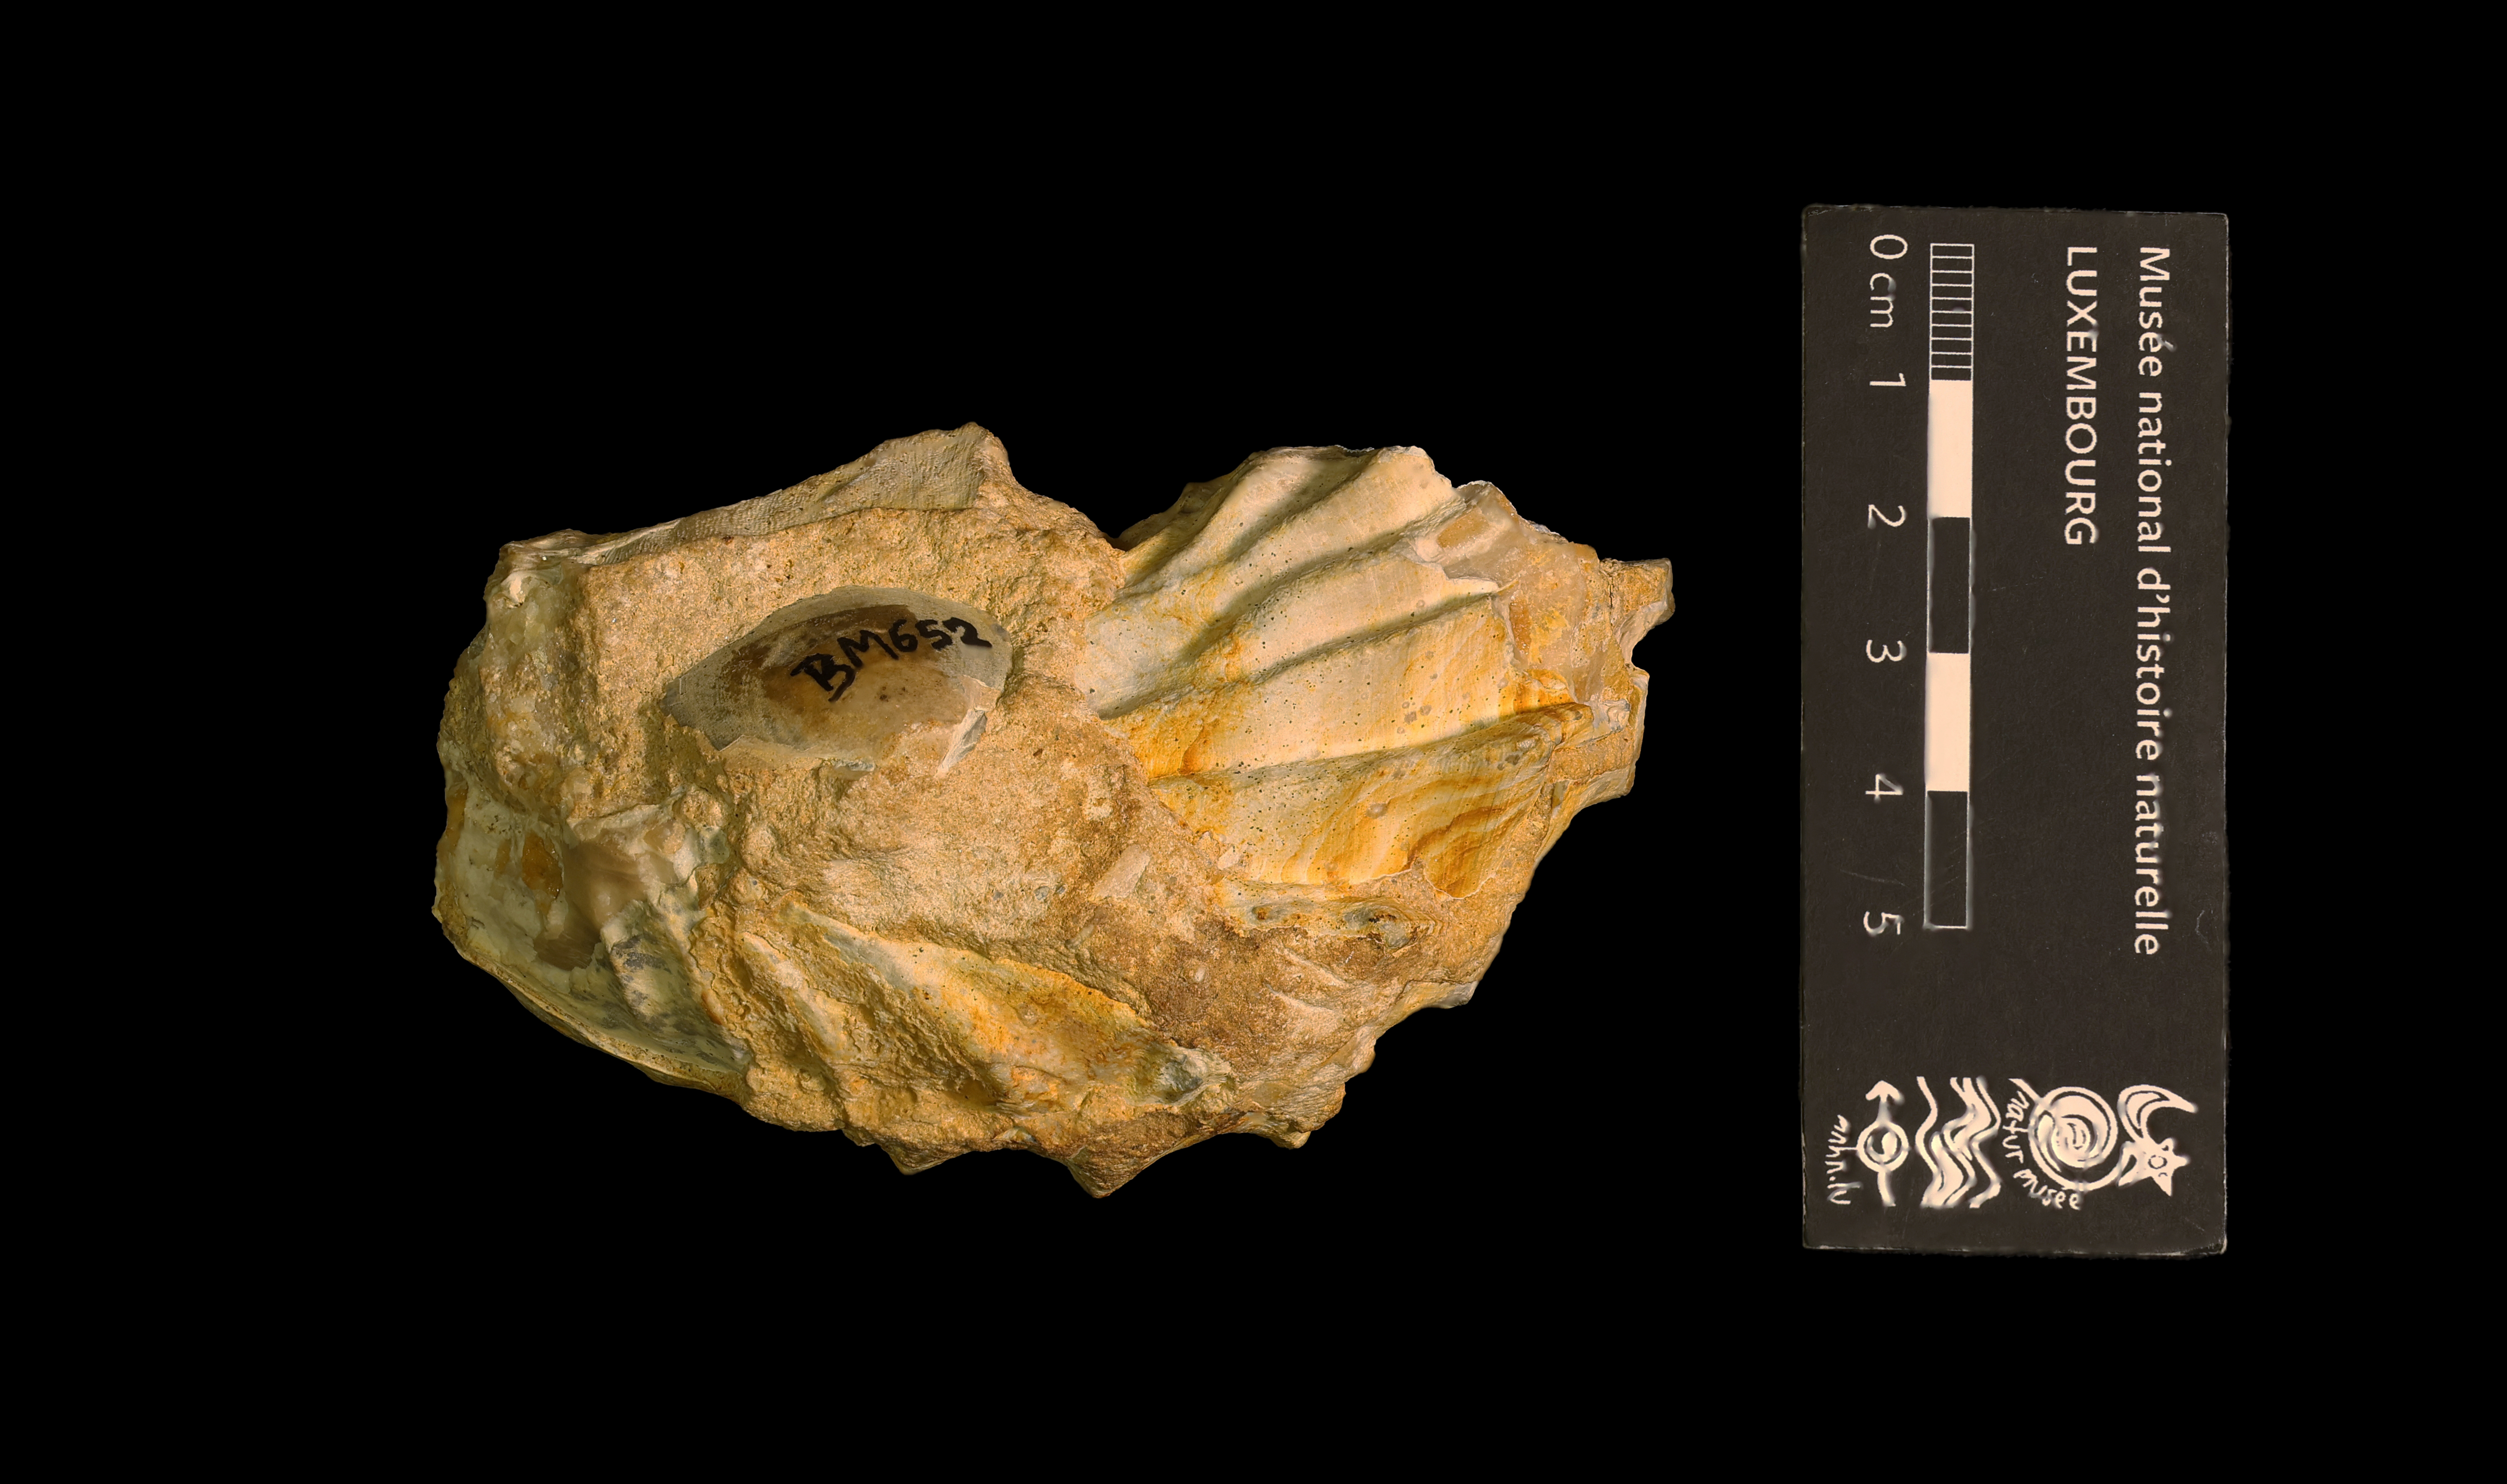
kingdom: Animalia
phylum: Mollusca
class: Bivalvia
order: Ostreida
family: Ostreidae
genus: Ostrea
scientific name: Ostrea marshii
